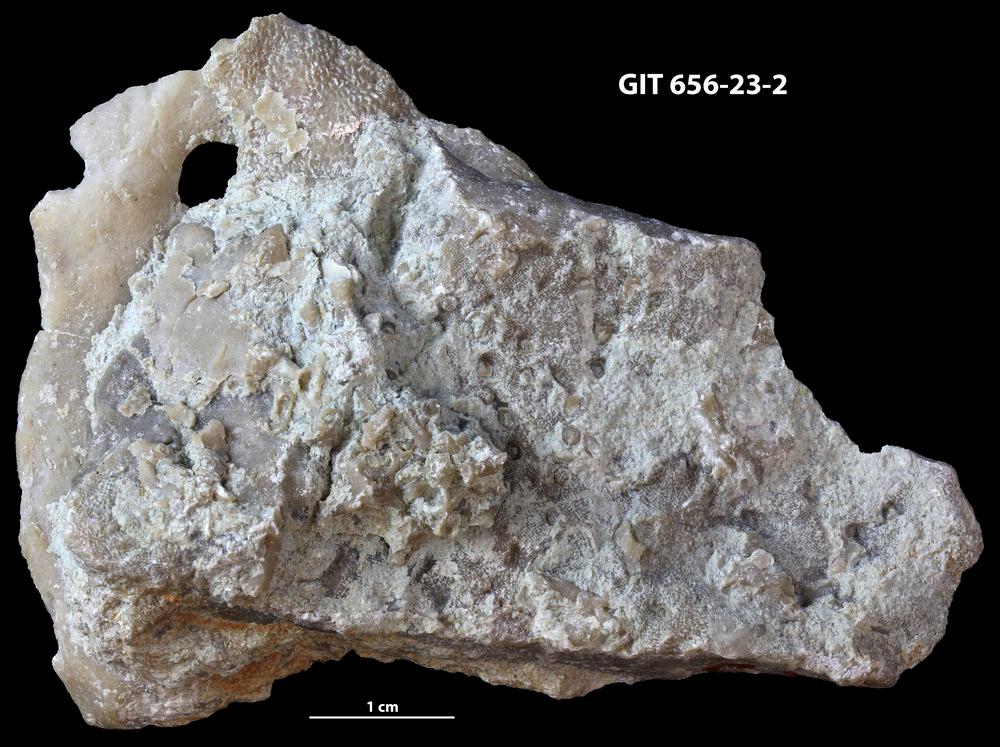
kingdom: Animalia
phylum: Cnidaria
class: Anthozoa
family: Alveolitidae
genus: Kitakamiia
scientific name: Kitakamiia
